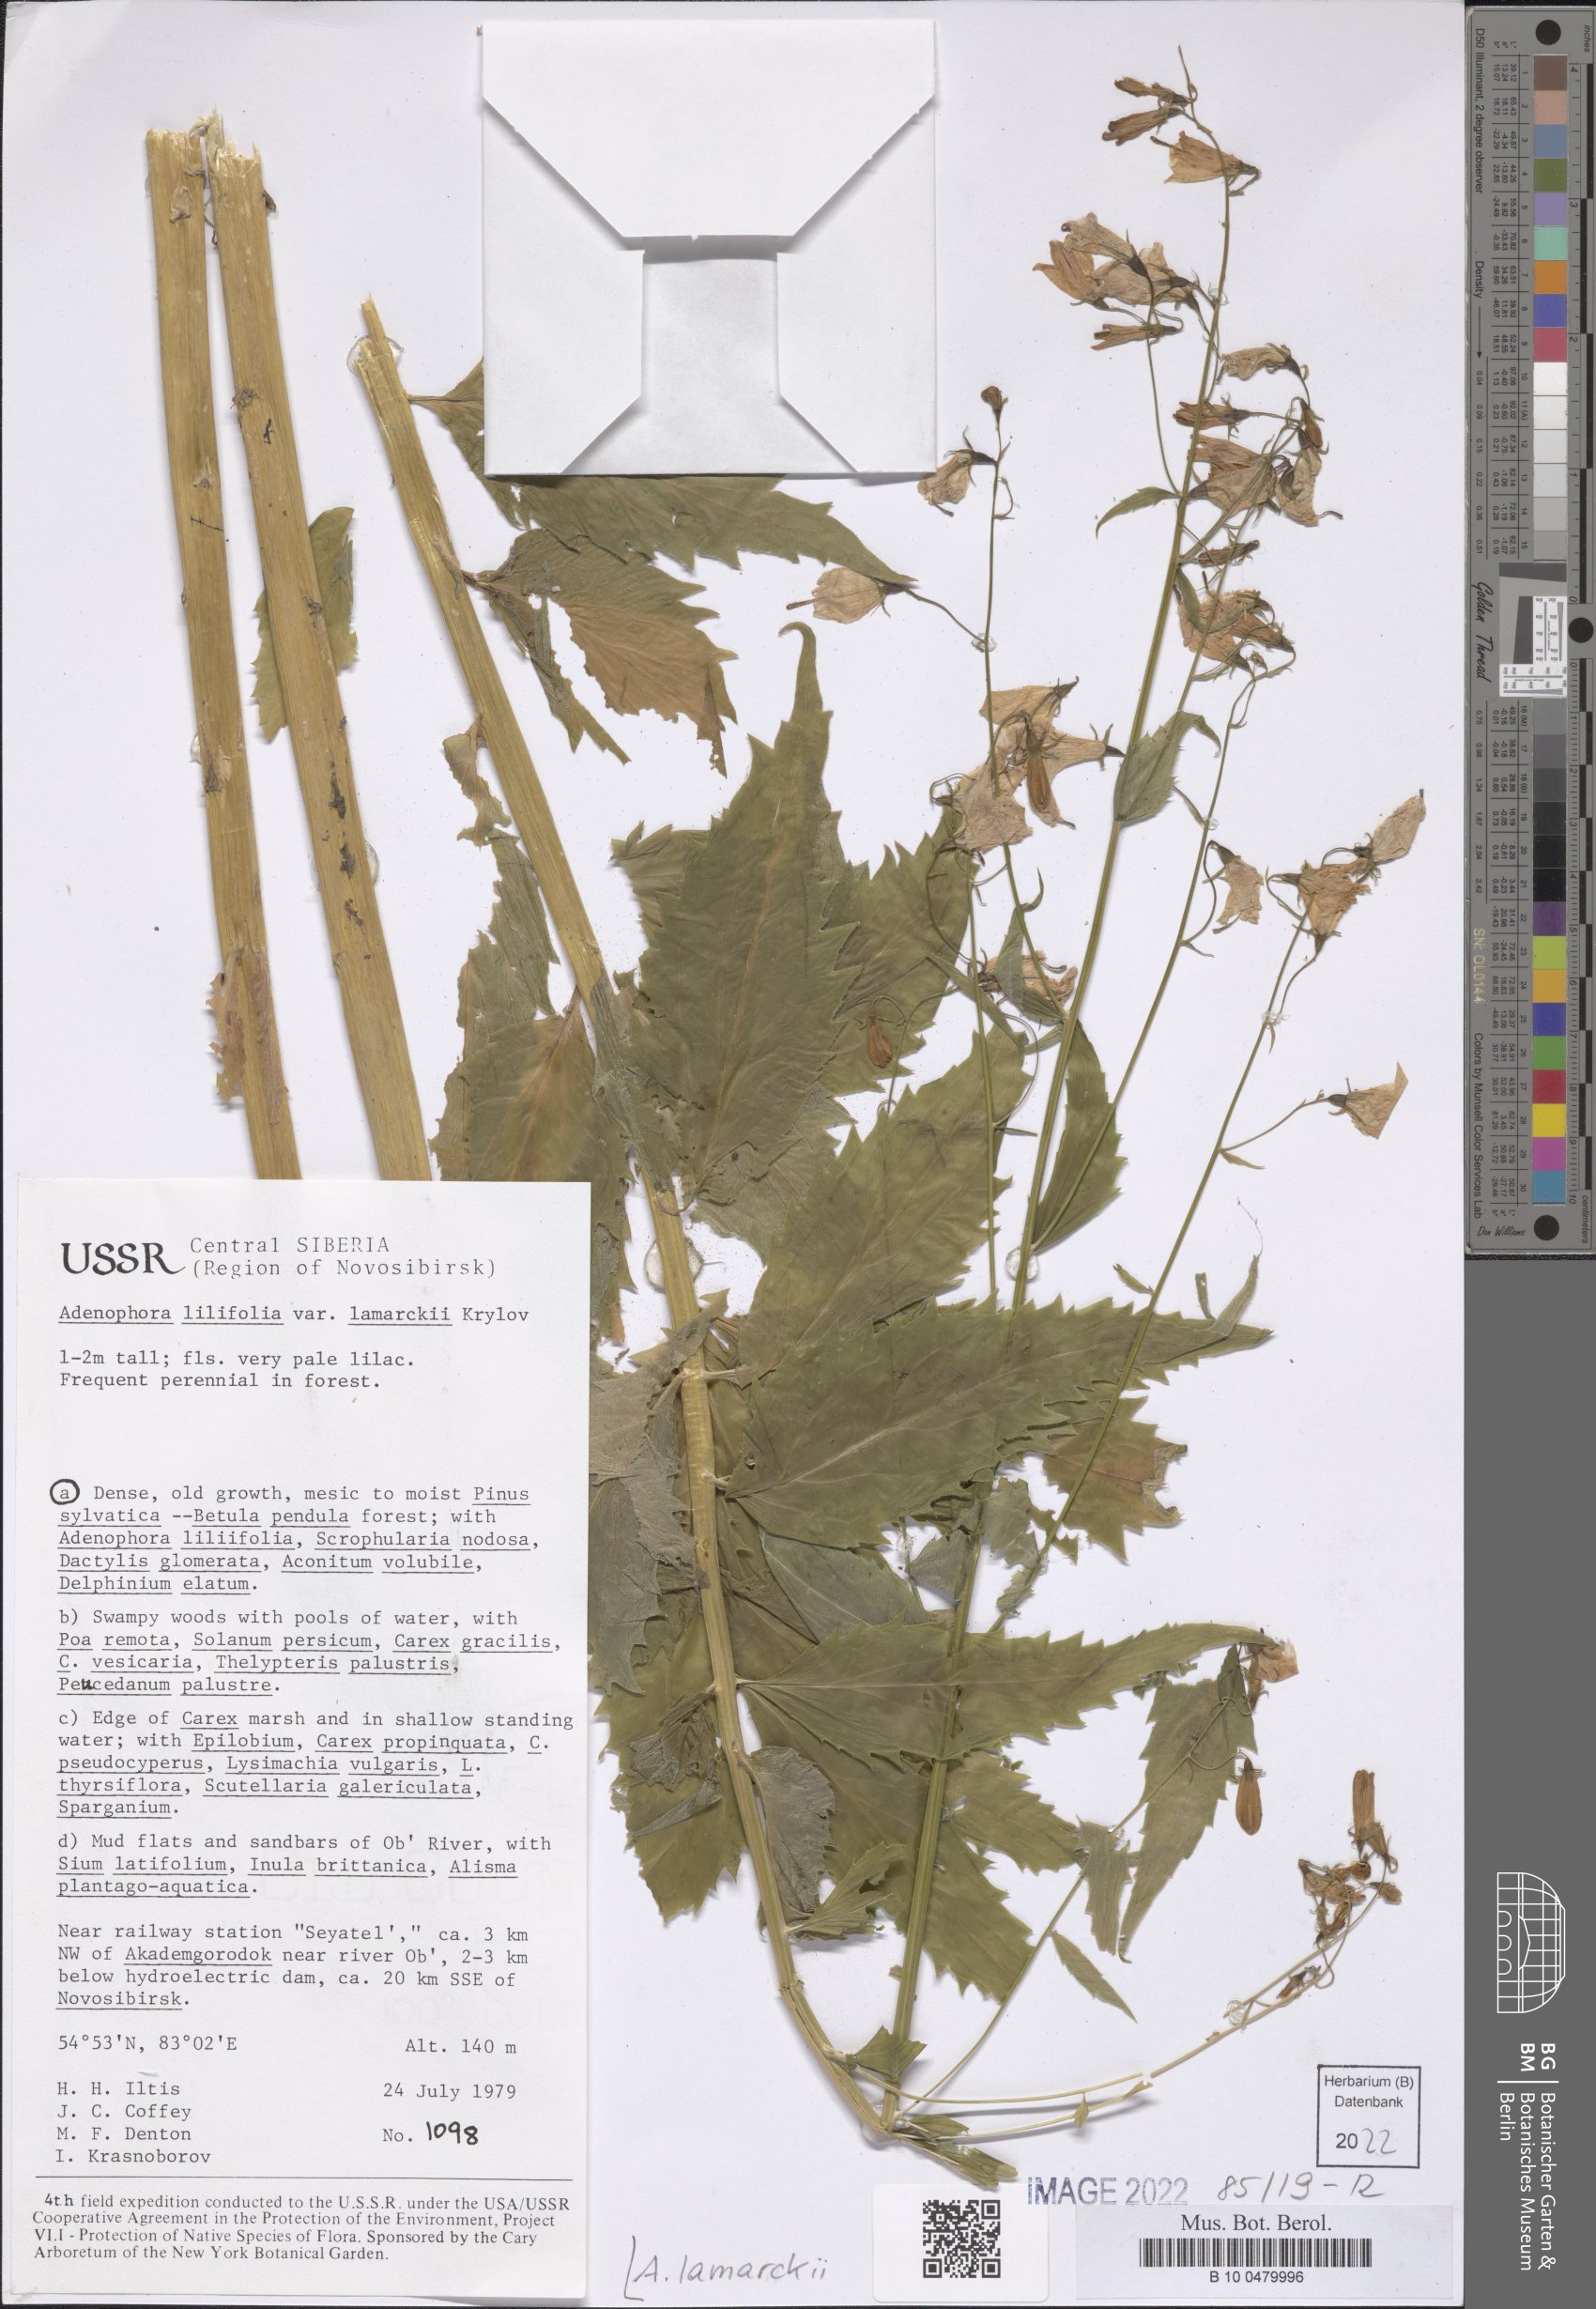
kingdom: Plantae
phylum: Tracheophyta
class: Magnoliopsida
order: Asterales
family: Campanulaceae
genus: Adenophora
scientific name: Adenophora lamarkii
